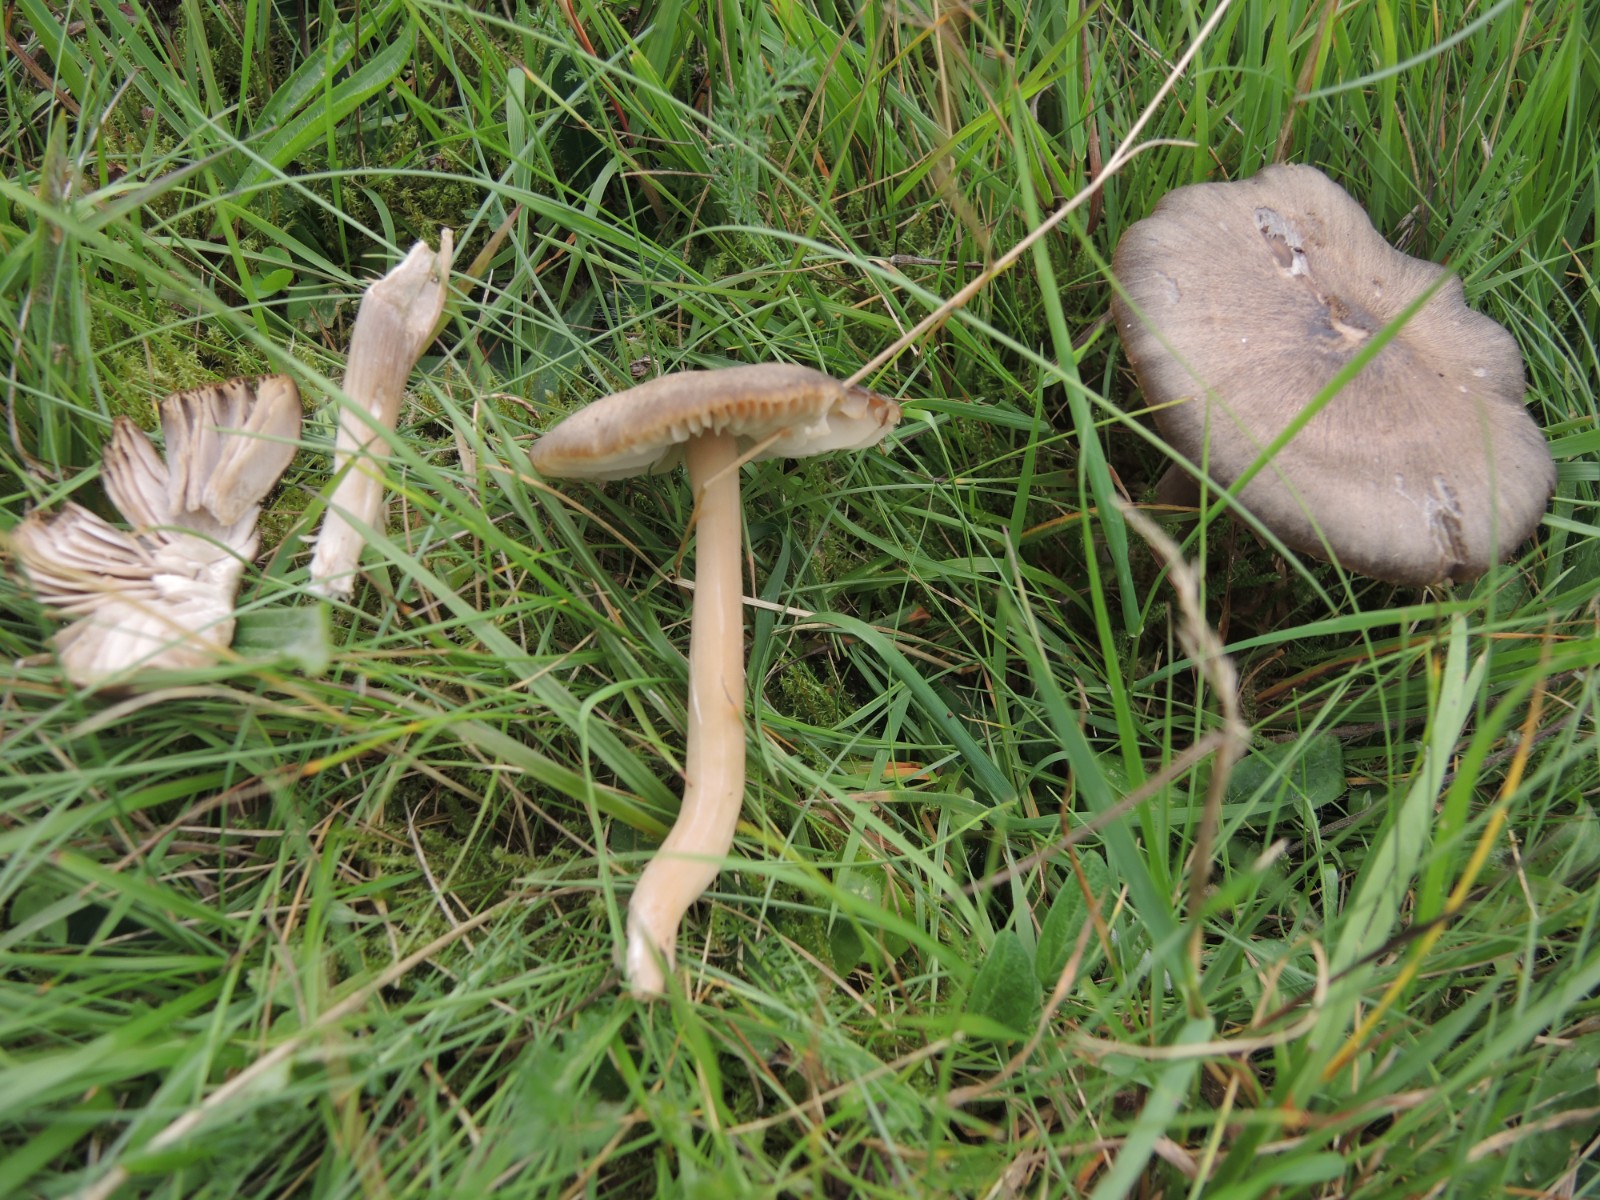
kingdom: Fungi
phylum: Basidiomycota
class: Agaricomycetes
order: Agaricales
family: Hygrophoraceae
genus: Neohygrocybe
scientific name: Neohygrocybe nitrata
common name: stinkende vokshat
